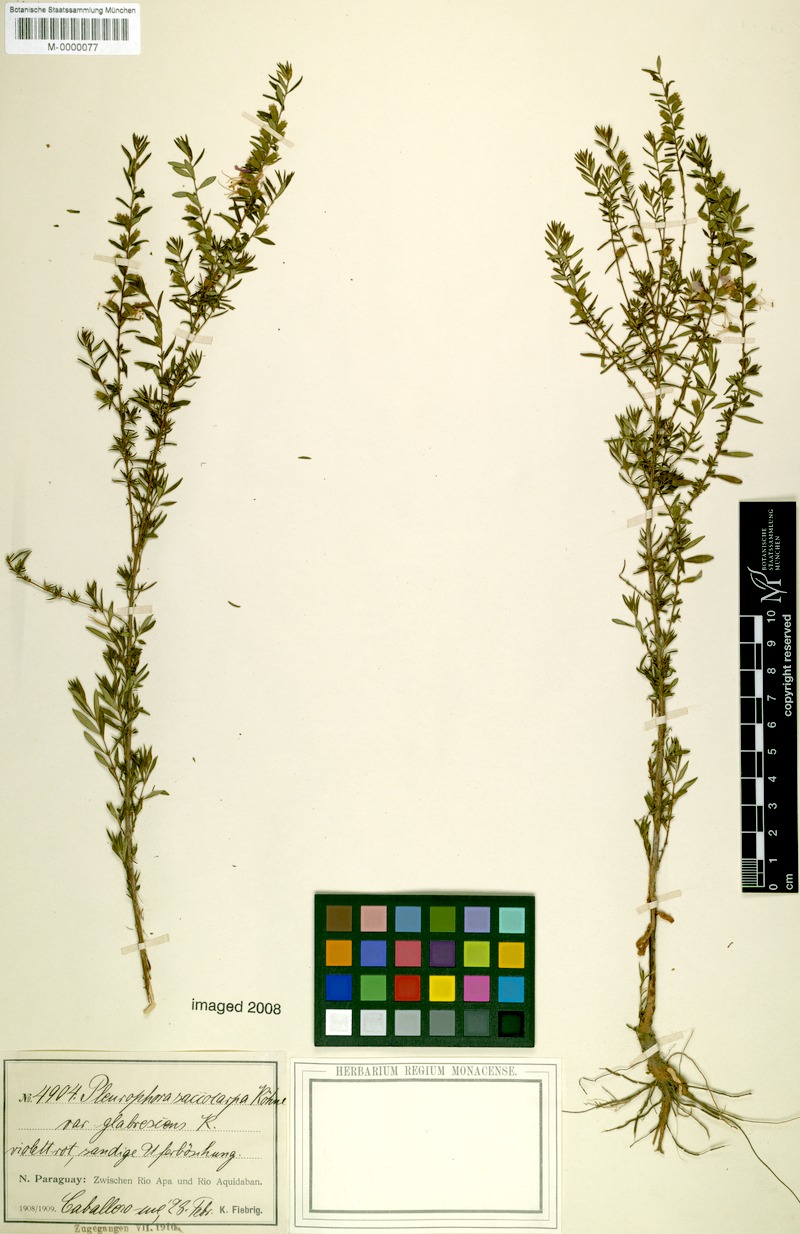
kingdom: Plantae
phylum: Tracheophyta
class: Magnoliopsida
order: Myrtales
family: Lythraceae
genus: Pleurophora
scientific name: Pleurophora saccocarpa
